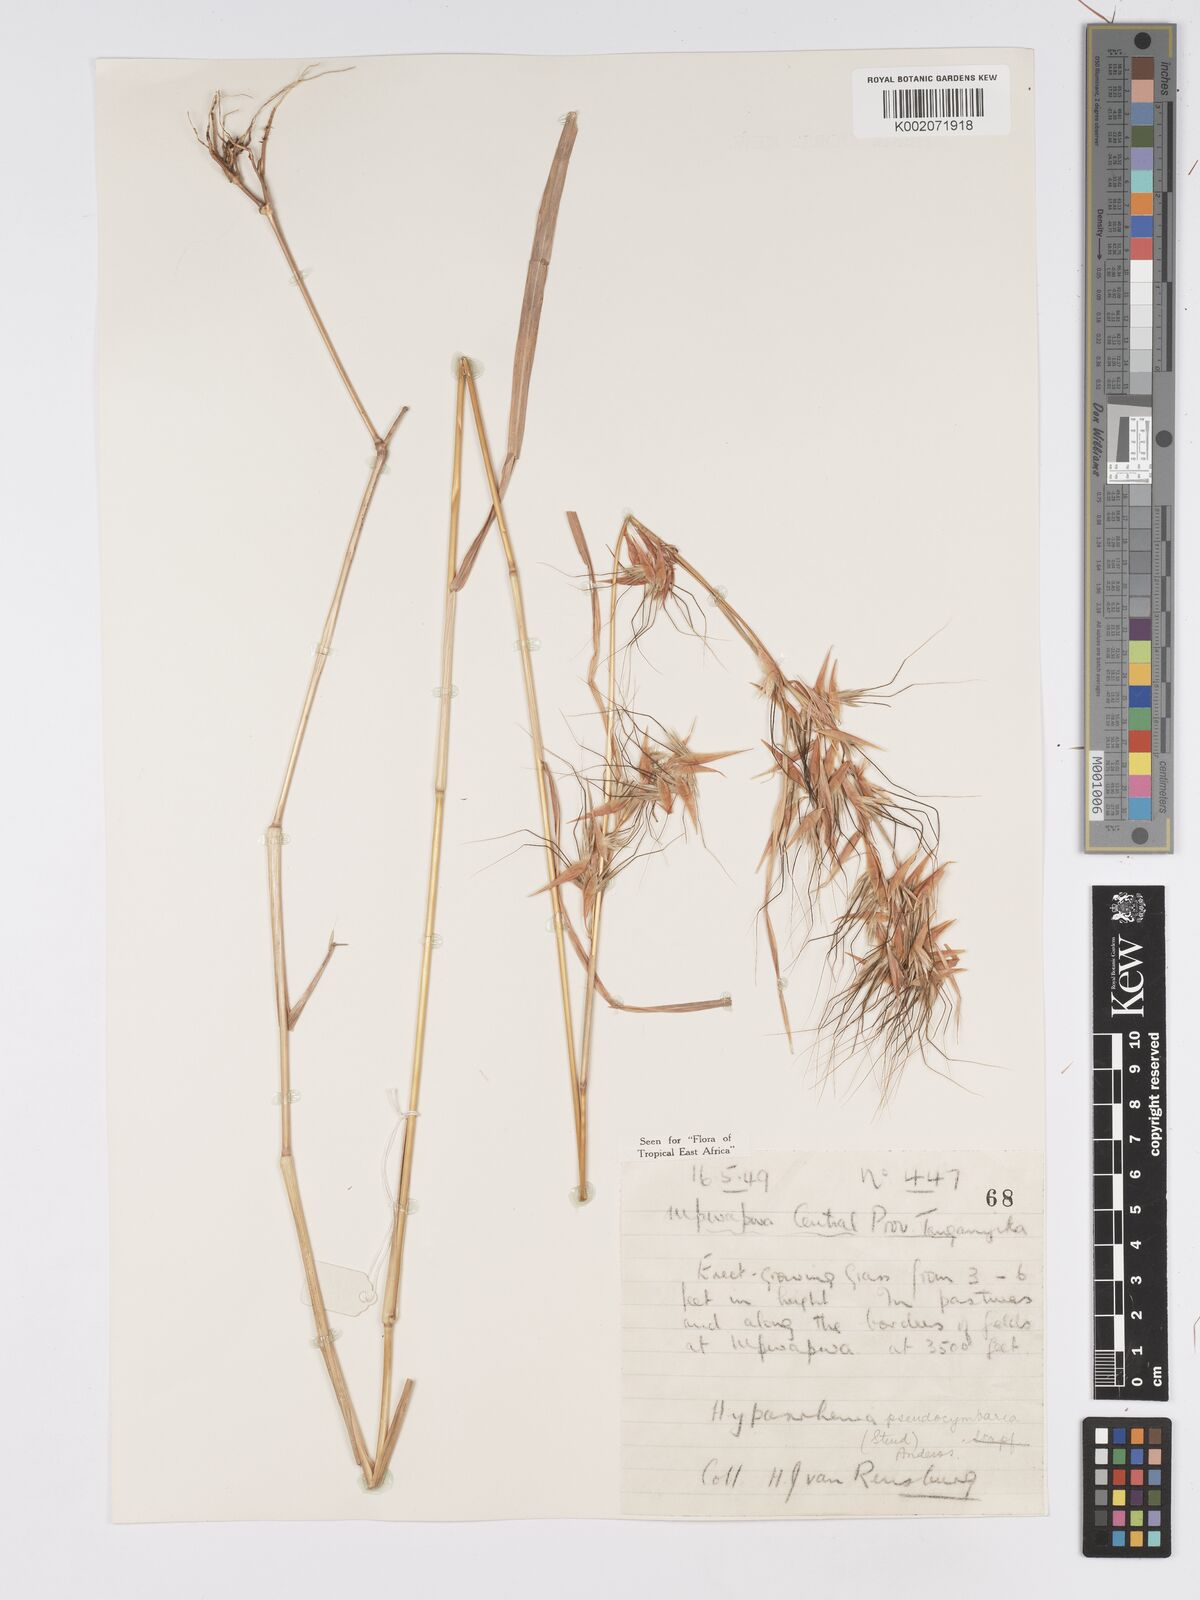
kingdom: Plantae
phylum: Tracheophyta
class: Liliopsida
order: Poales
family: Poaceae
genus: Hyparrhenia
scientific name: Hyparrhenia anthistirioides
